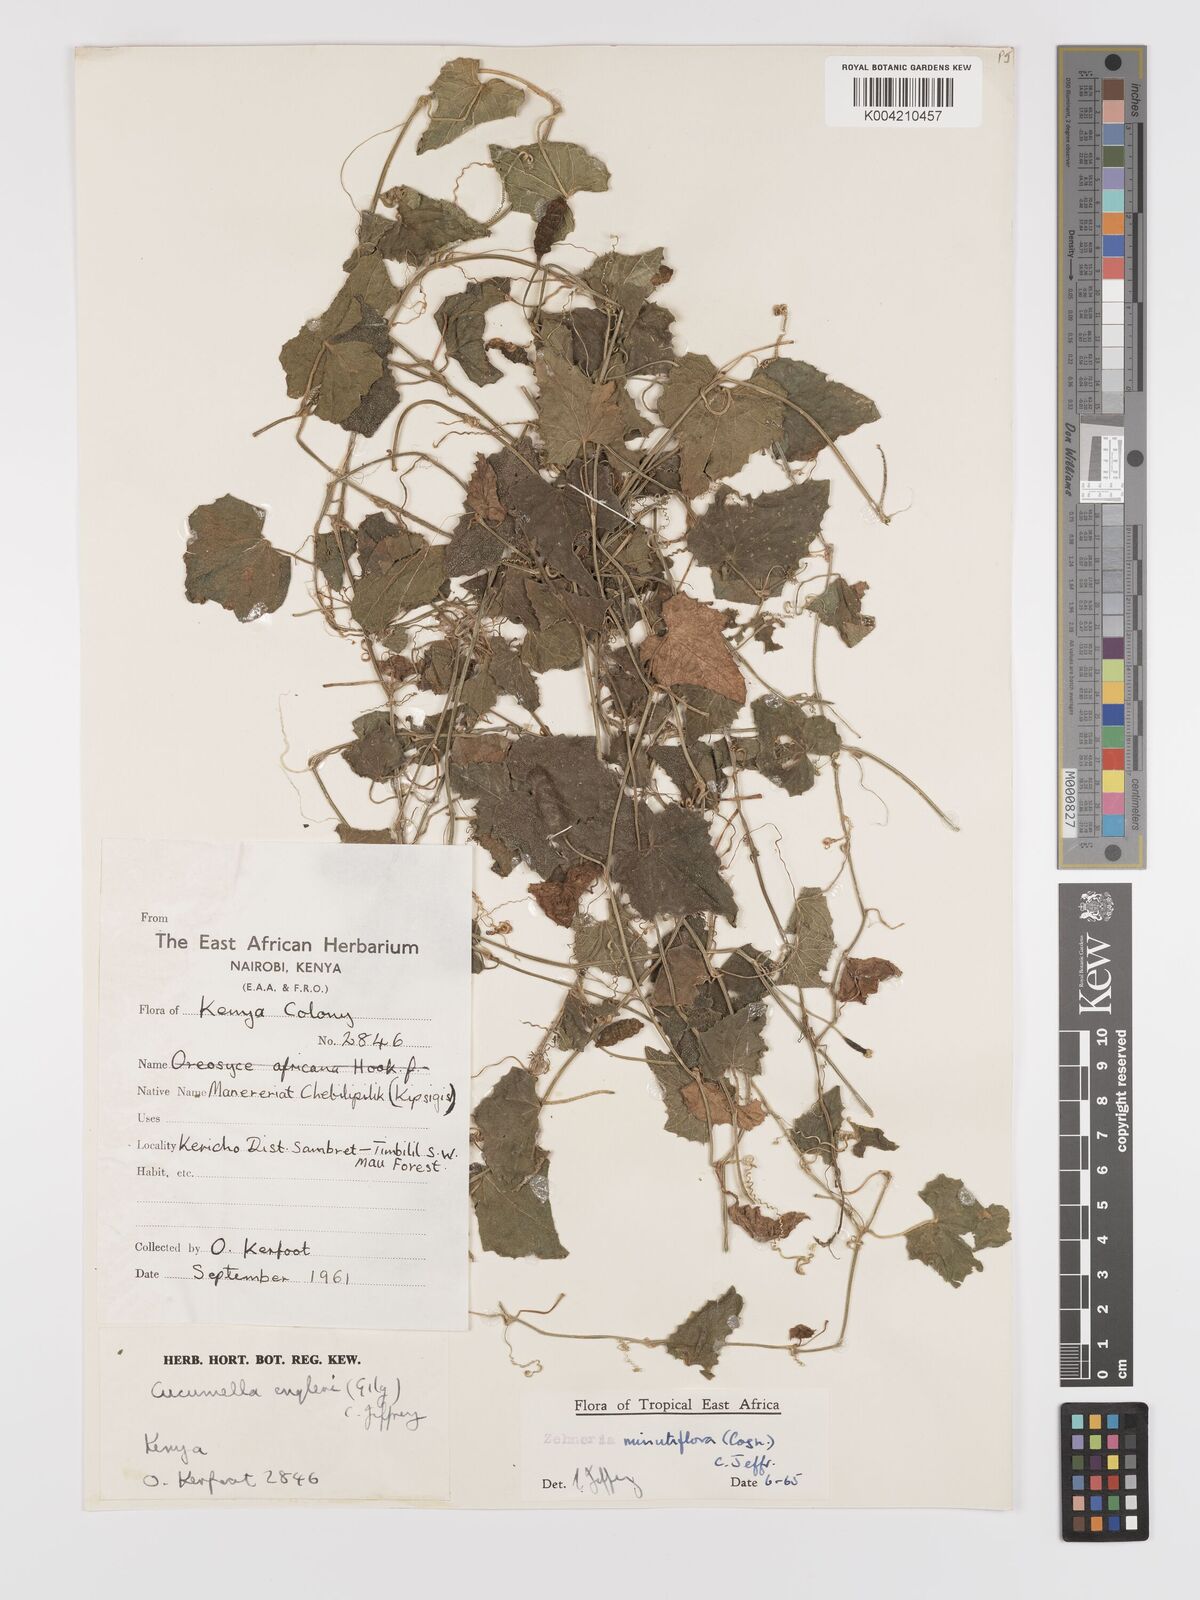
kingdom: Plantae
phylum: Tracheophyta
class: Magnoliopsida
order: Cucurbitales
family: Cucurbitaceae
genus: Zehneria
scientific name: Zehneria minutiflora
